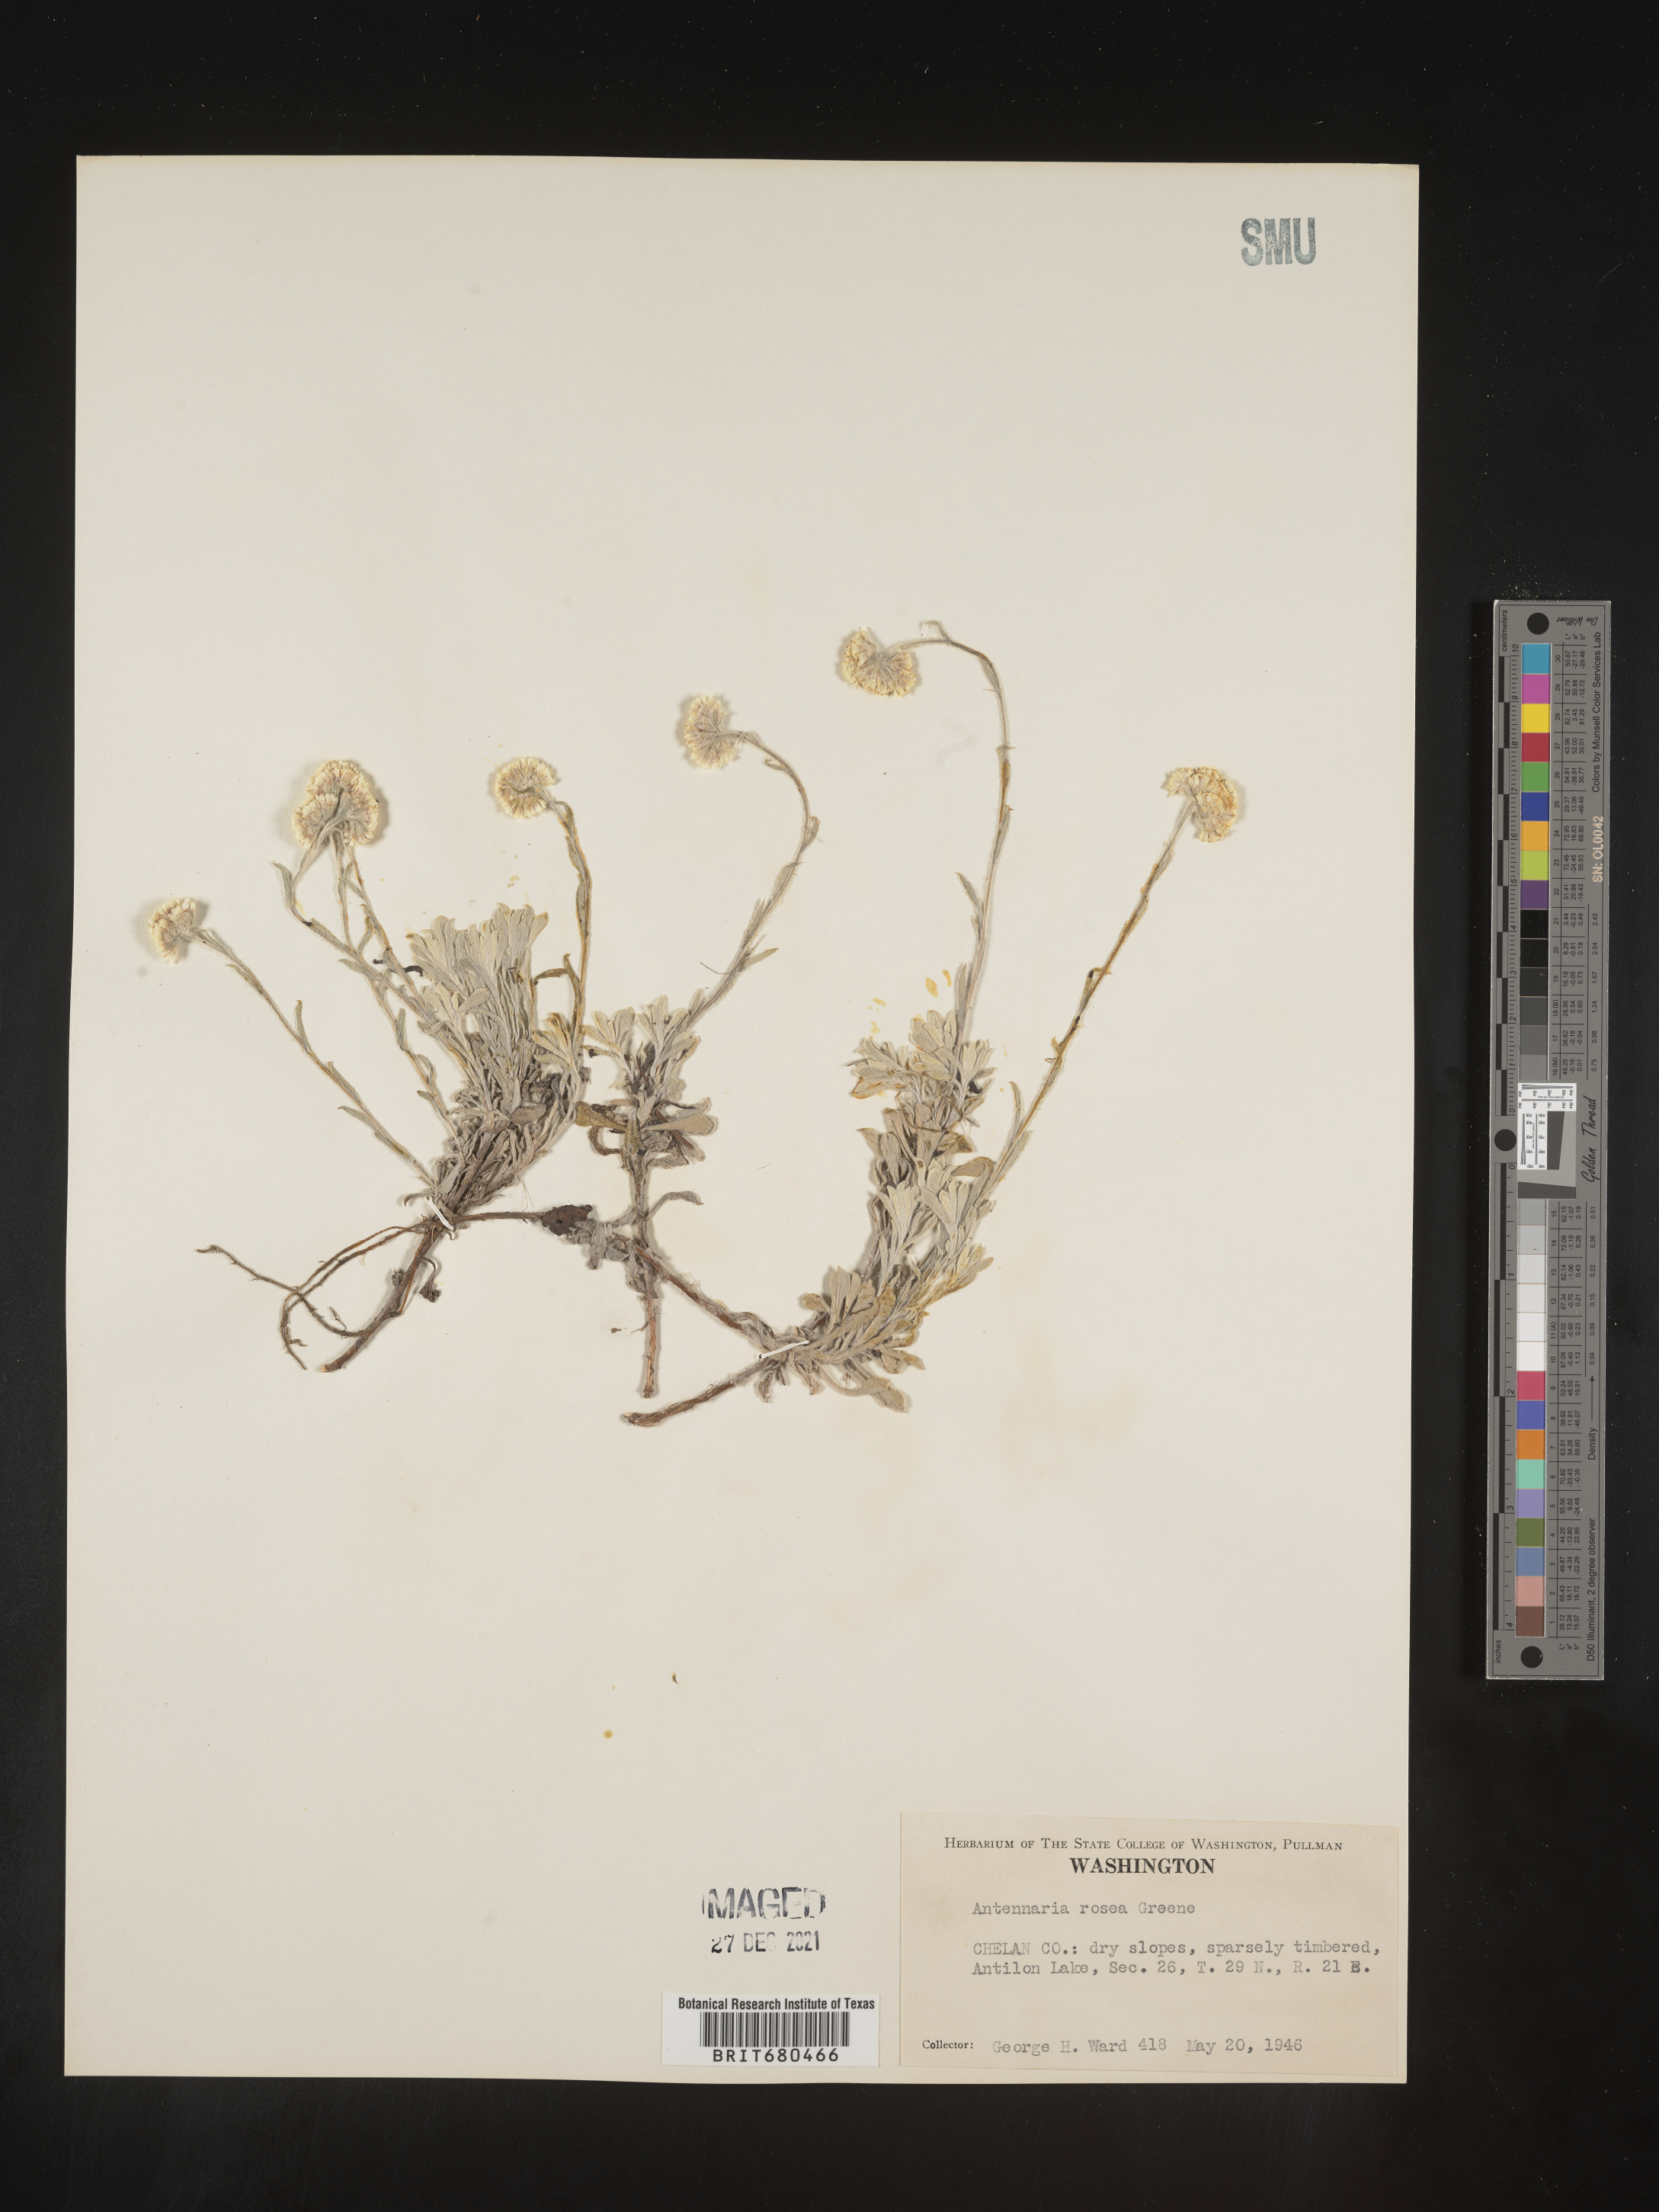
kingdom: Plantae
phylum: Tracheophyta
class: Magnoliopsida
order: Asterales
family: Asteraceae
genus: Antennaria
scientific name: Antennaria rosea
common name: Rosy pussytoes
